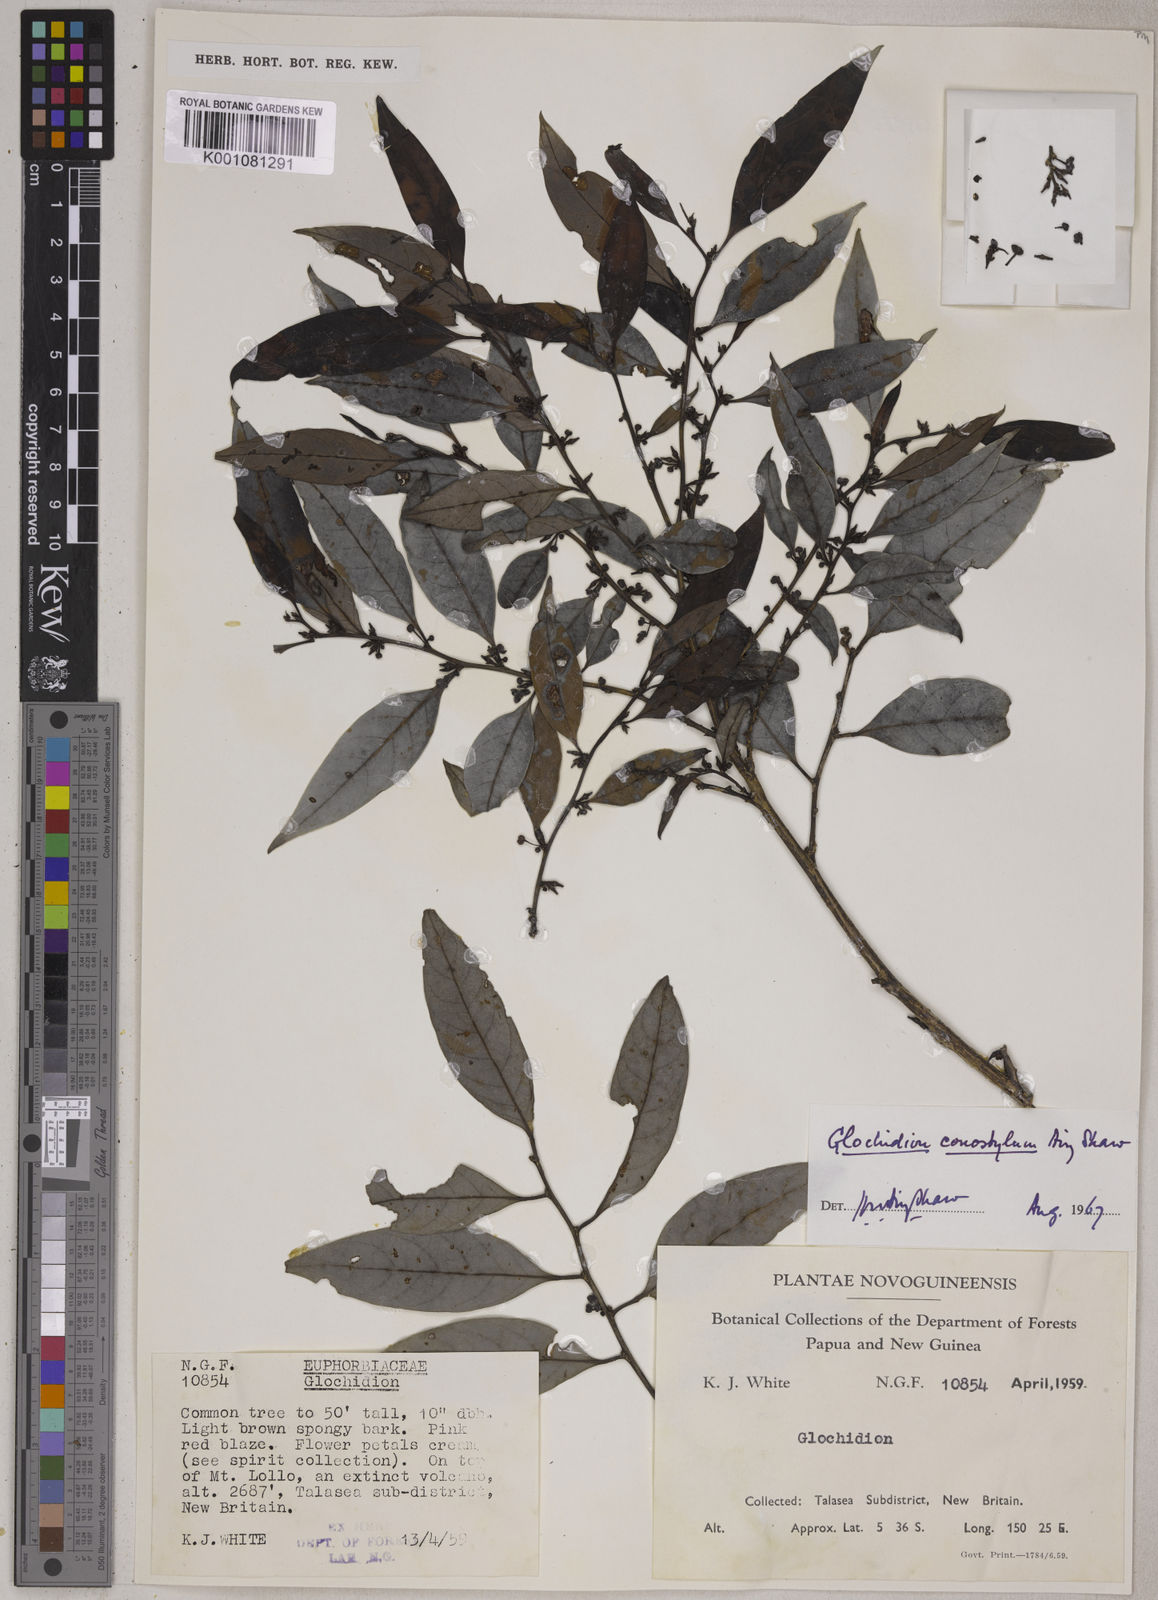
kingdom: Plantae
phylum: Tracheophyta
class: Magnoliopsida
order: Malpighiales
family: Phyllanthaceae
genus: Glochidion
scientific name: Glochidion conostylum
